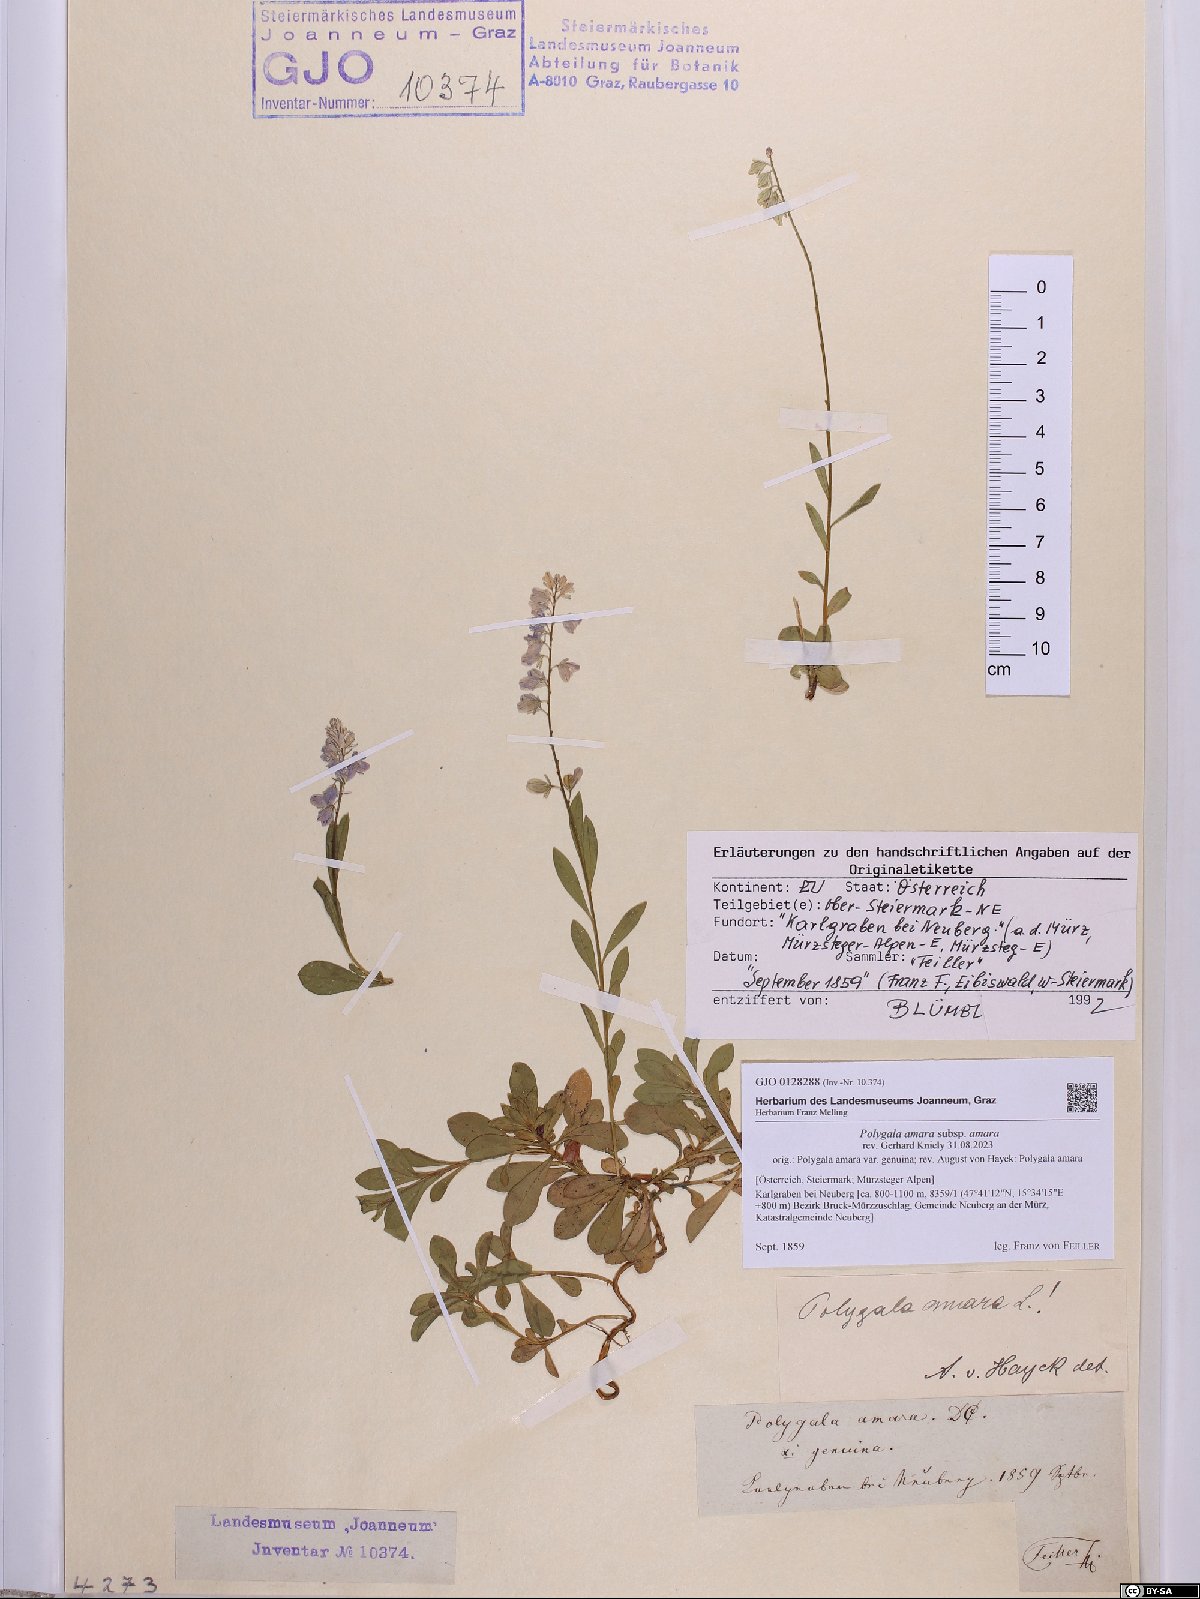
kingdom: Plantae
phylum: Tracheophyta
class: Magnoliopsida
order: Fabales
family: Polygalaceae
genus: Polygala
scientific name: Polygala amara
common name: Milkwort
